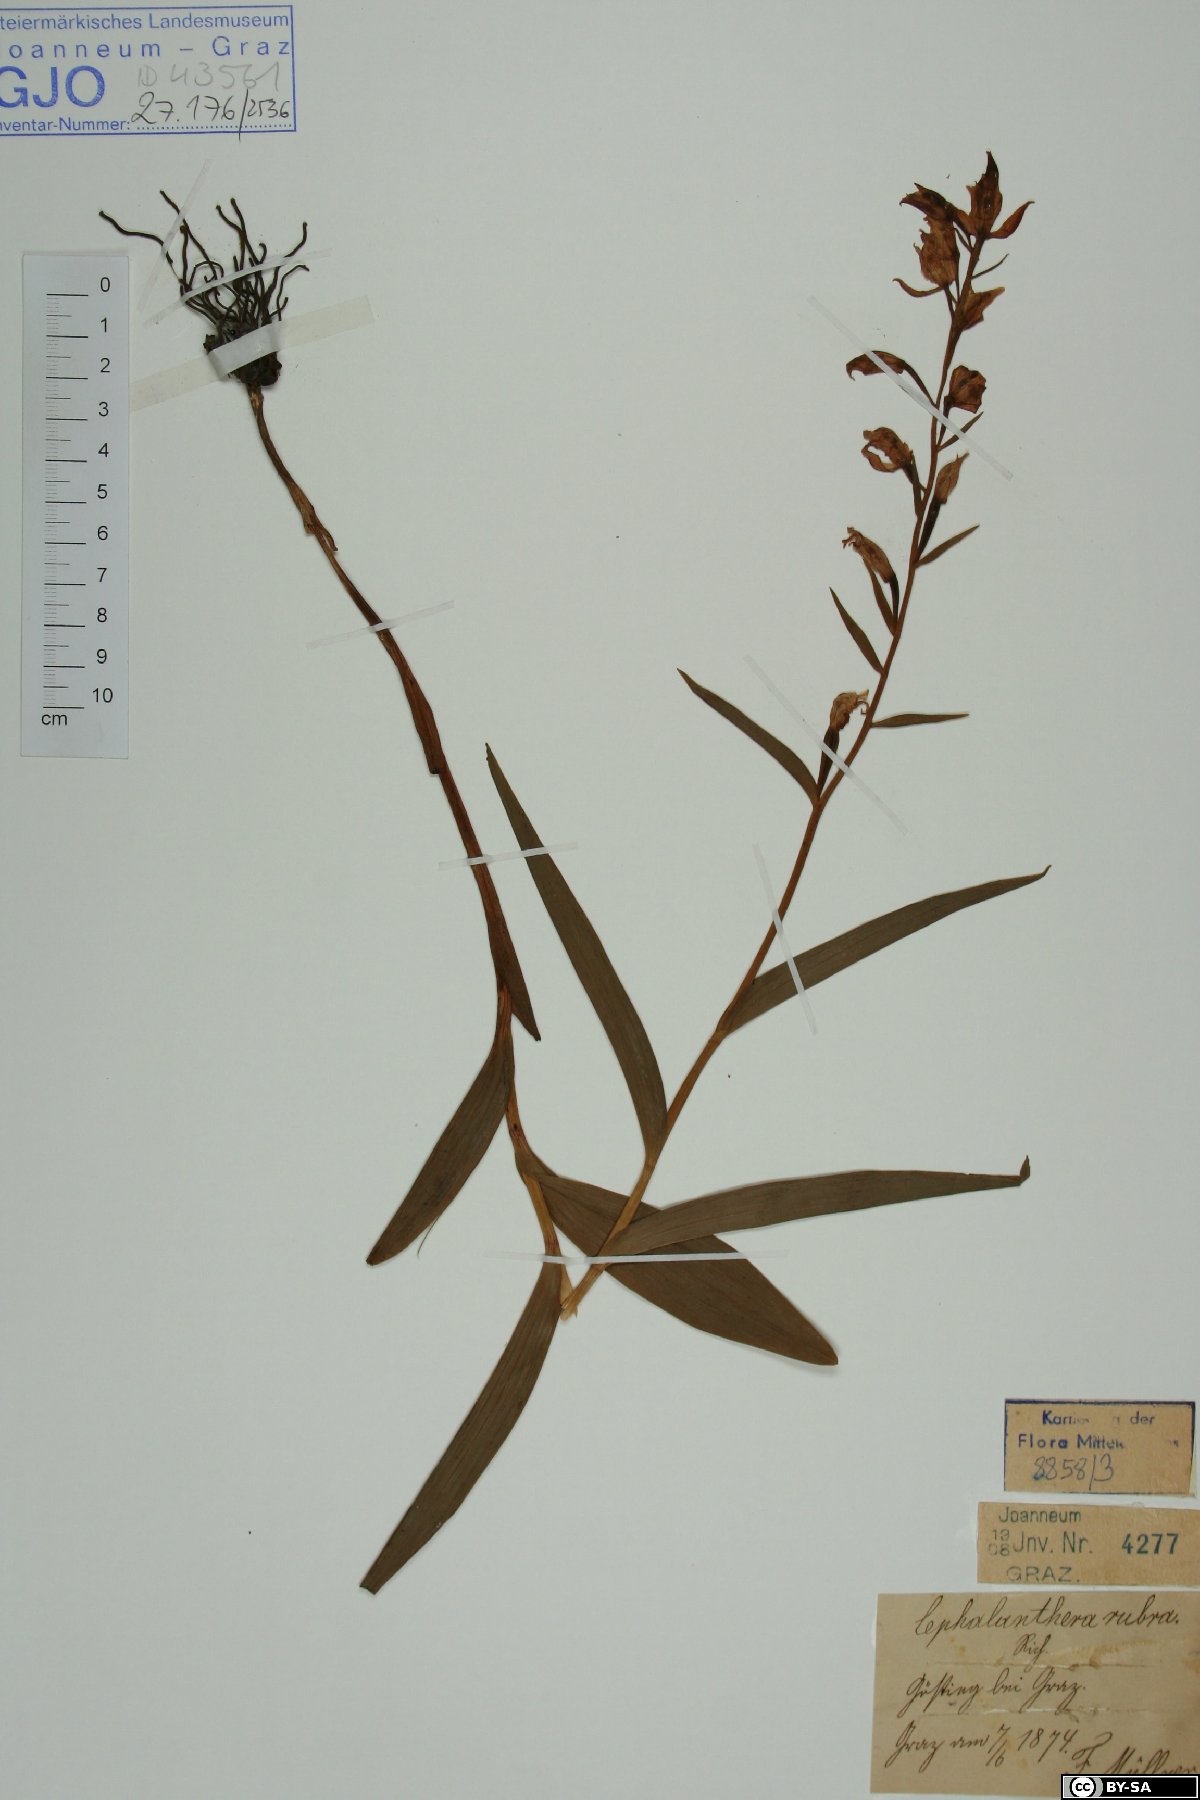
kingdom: Plantae
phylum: Tracheophyta
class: Liliopsida
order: Asparagales
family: Orchidaceae
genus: Cephalanthera
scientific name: Cephalanthera rubra
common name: Red helleborine
